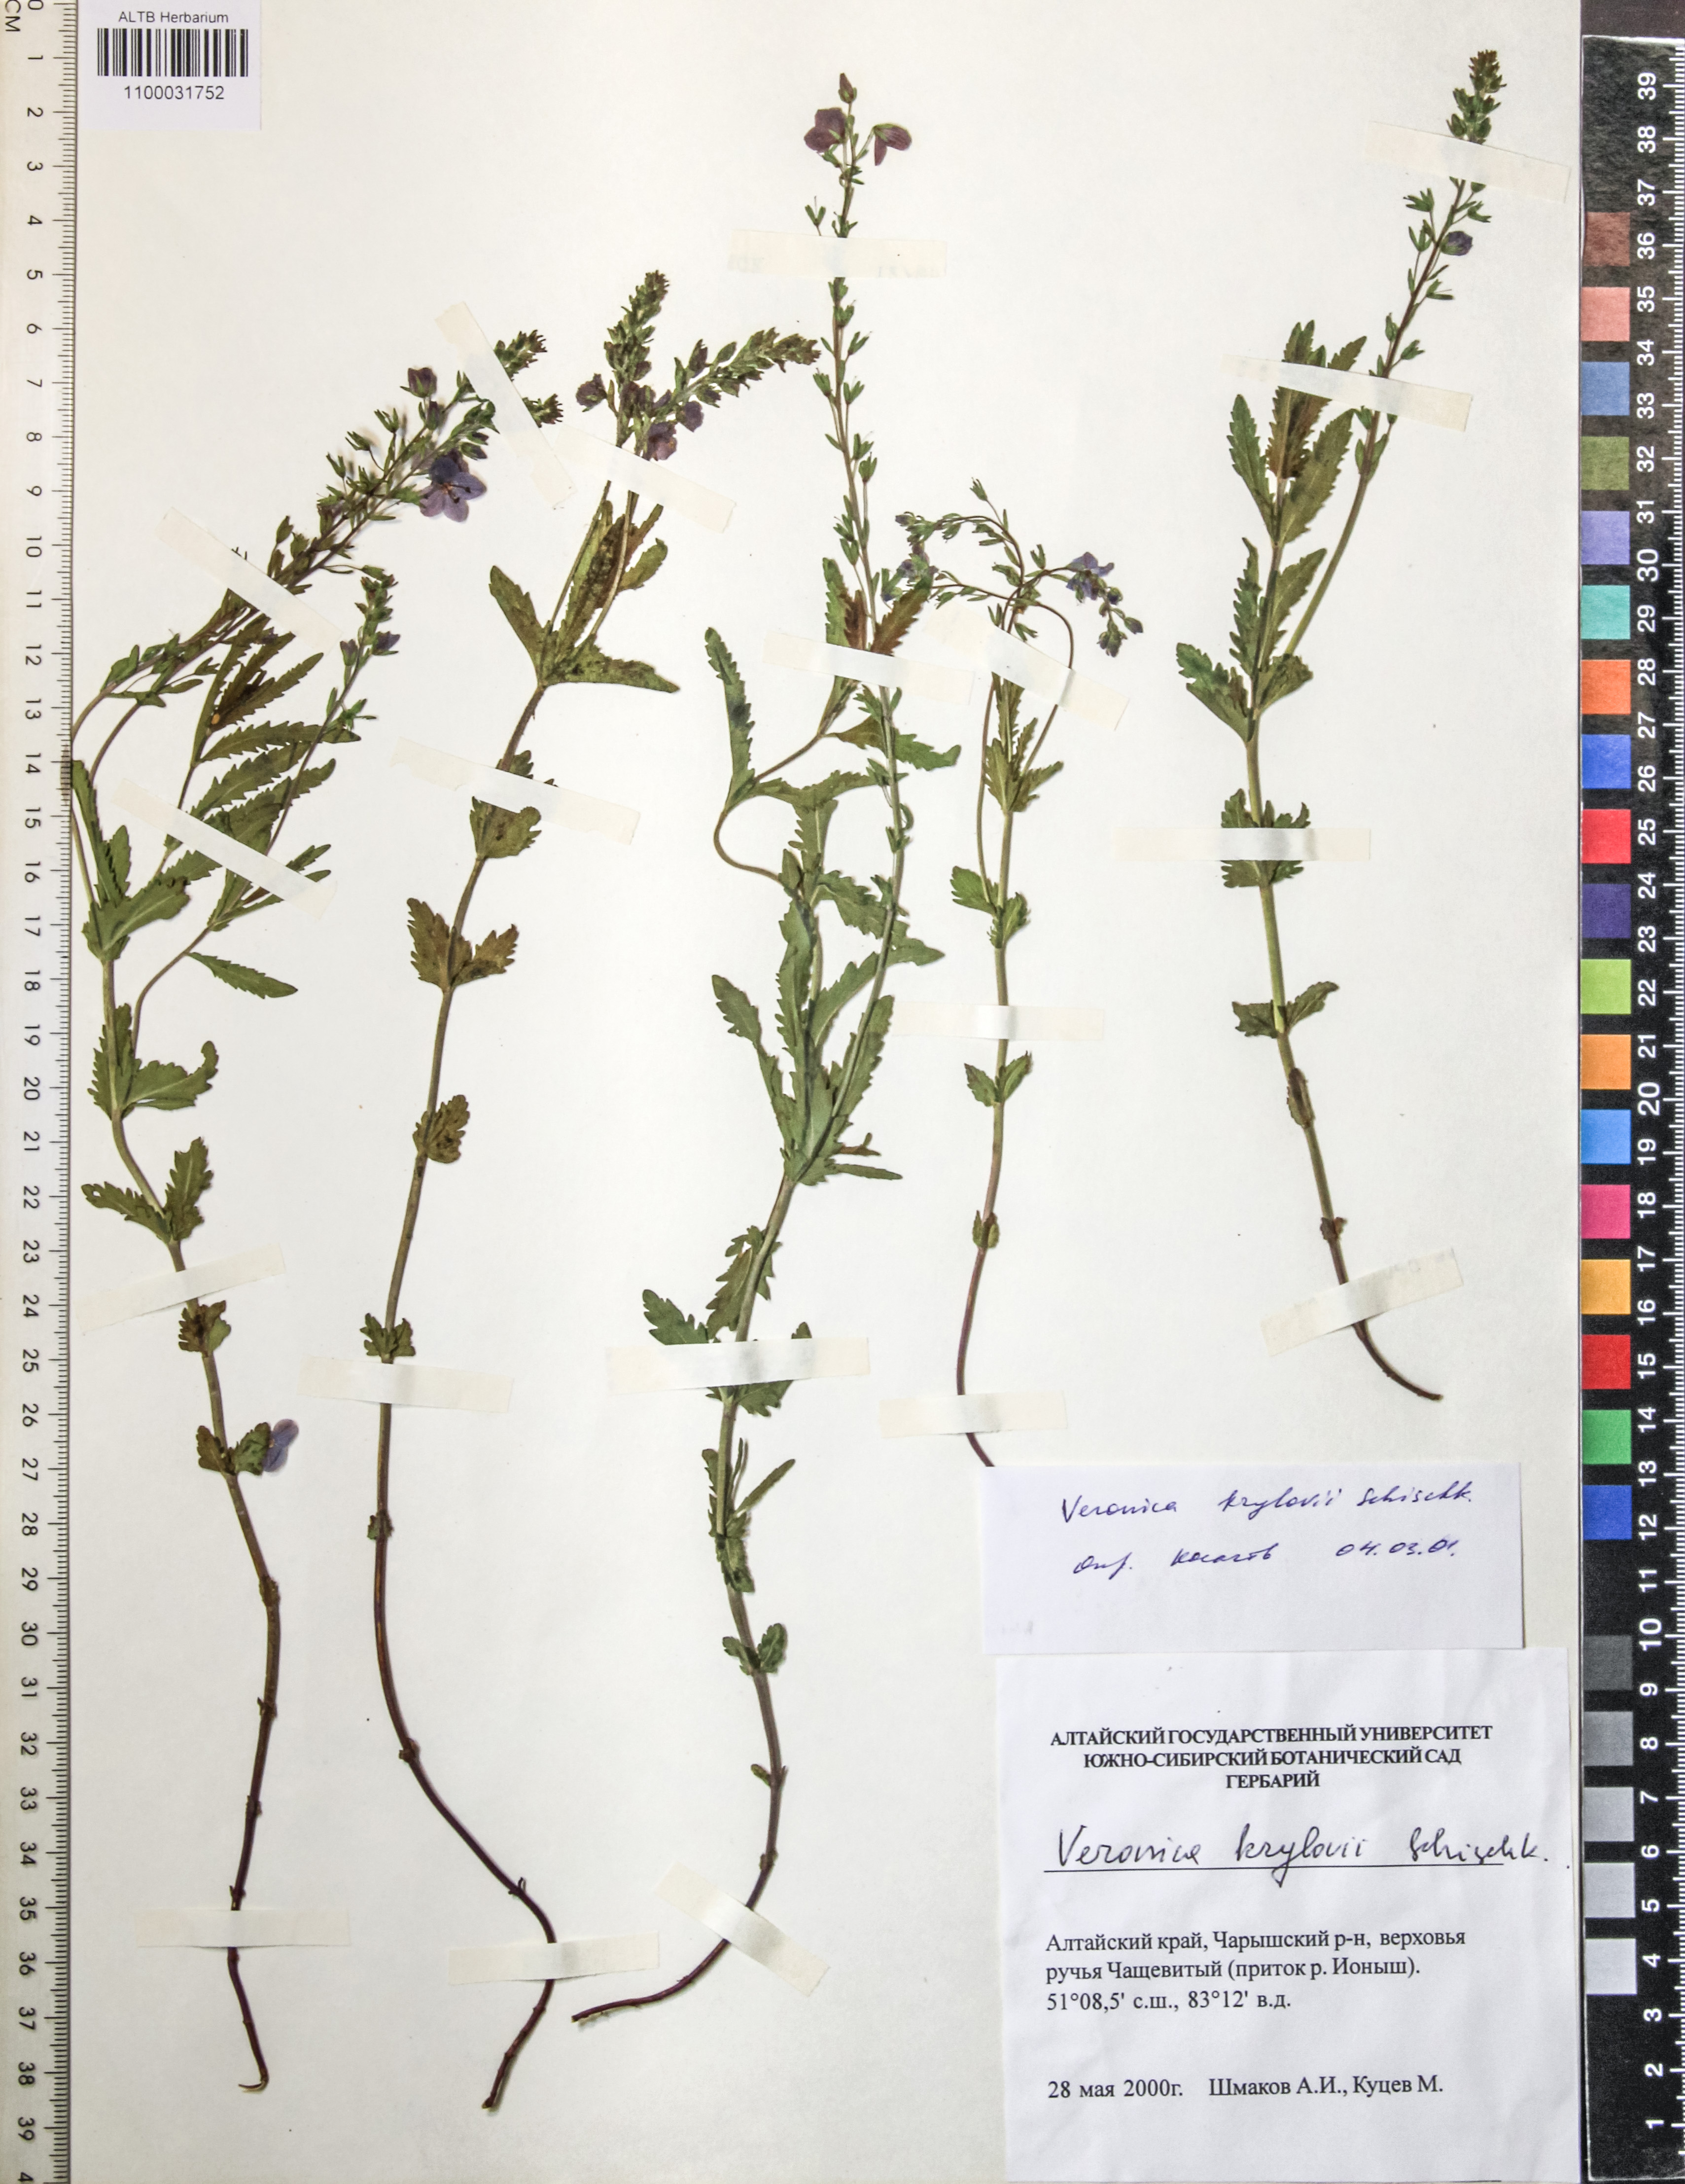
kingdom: Plantae
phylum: Tracheophyta
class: Magnoliopsida
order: Lamiales
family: Plantaginaceae
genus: Veronica
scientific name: Veronica krylovii
